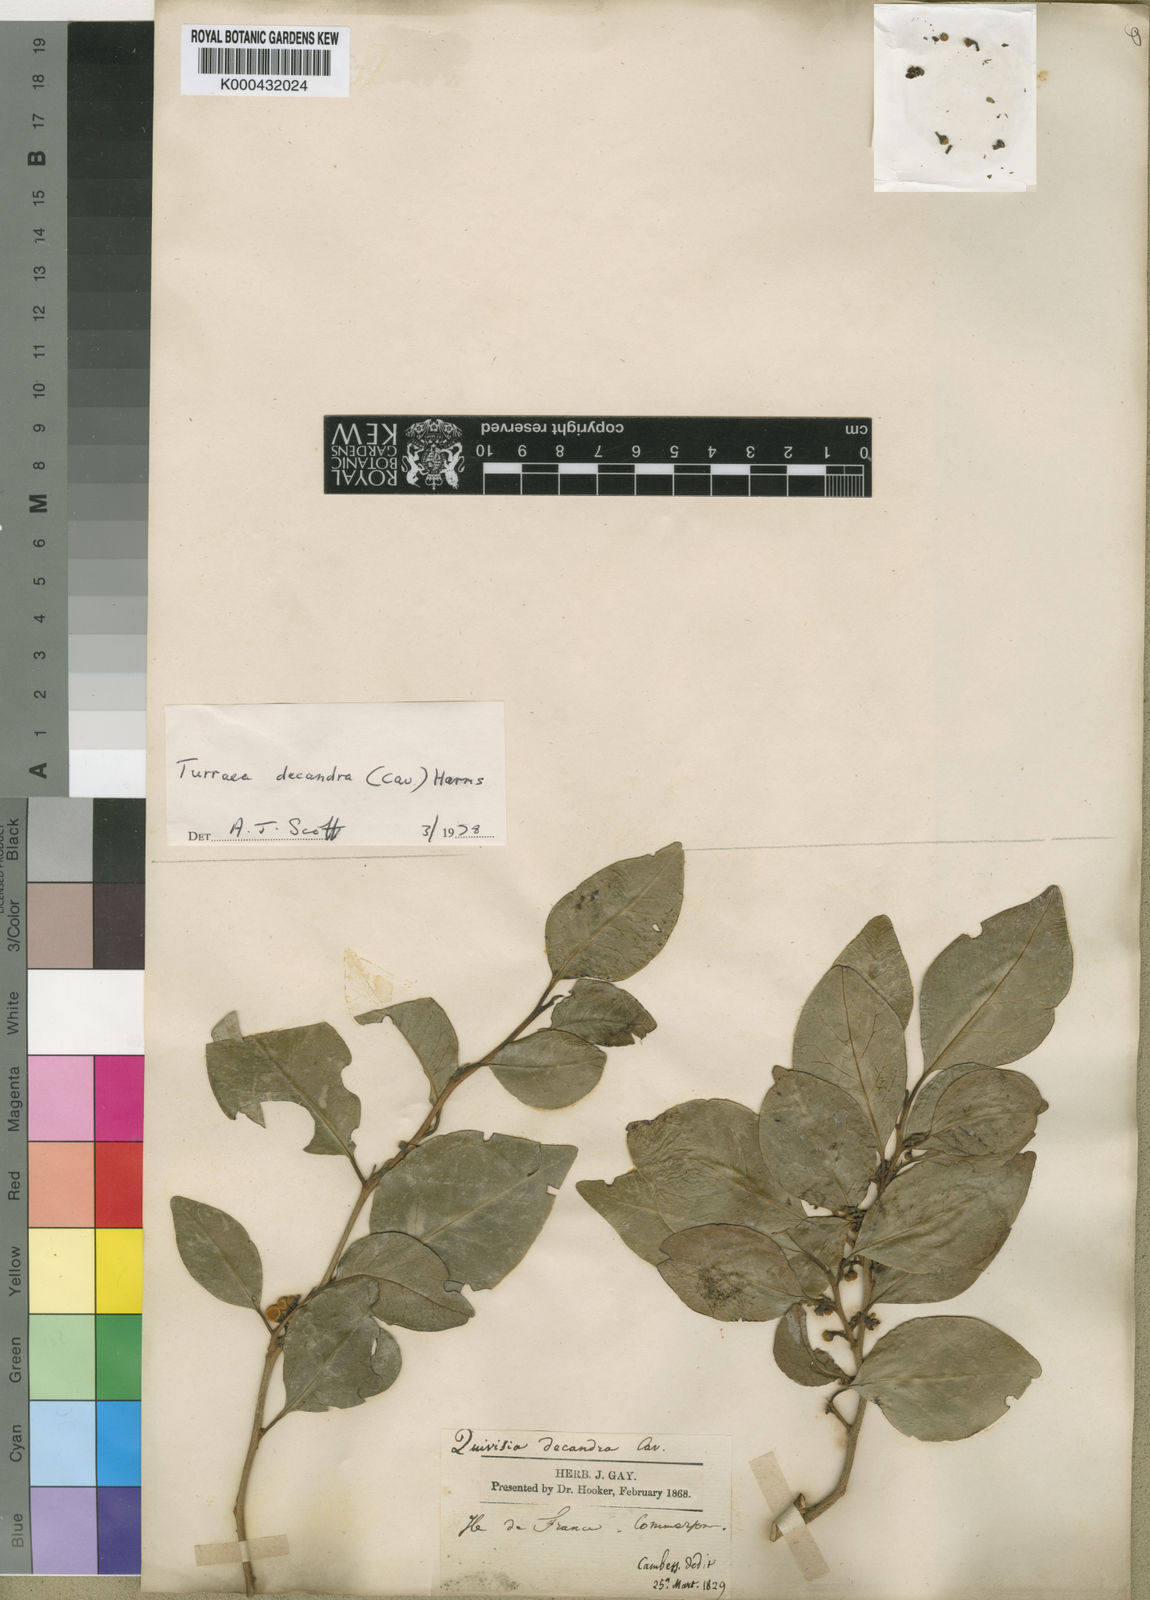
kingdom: Plantae
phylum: Tracheophyta
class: Magnoliopsida
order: Sapindales
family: Meliaceae
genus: Turraea
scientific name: Turraea
